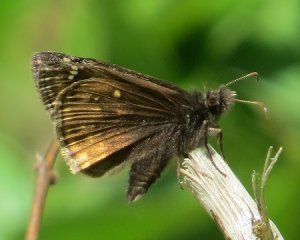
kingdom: Animalia
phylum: Arthropoda
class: Insecta
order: Lepidoptera
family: Hesperiidae
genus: Gesta
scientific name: Gesta
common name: Wild Indigo Duskywing
